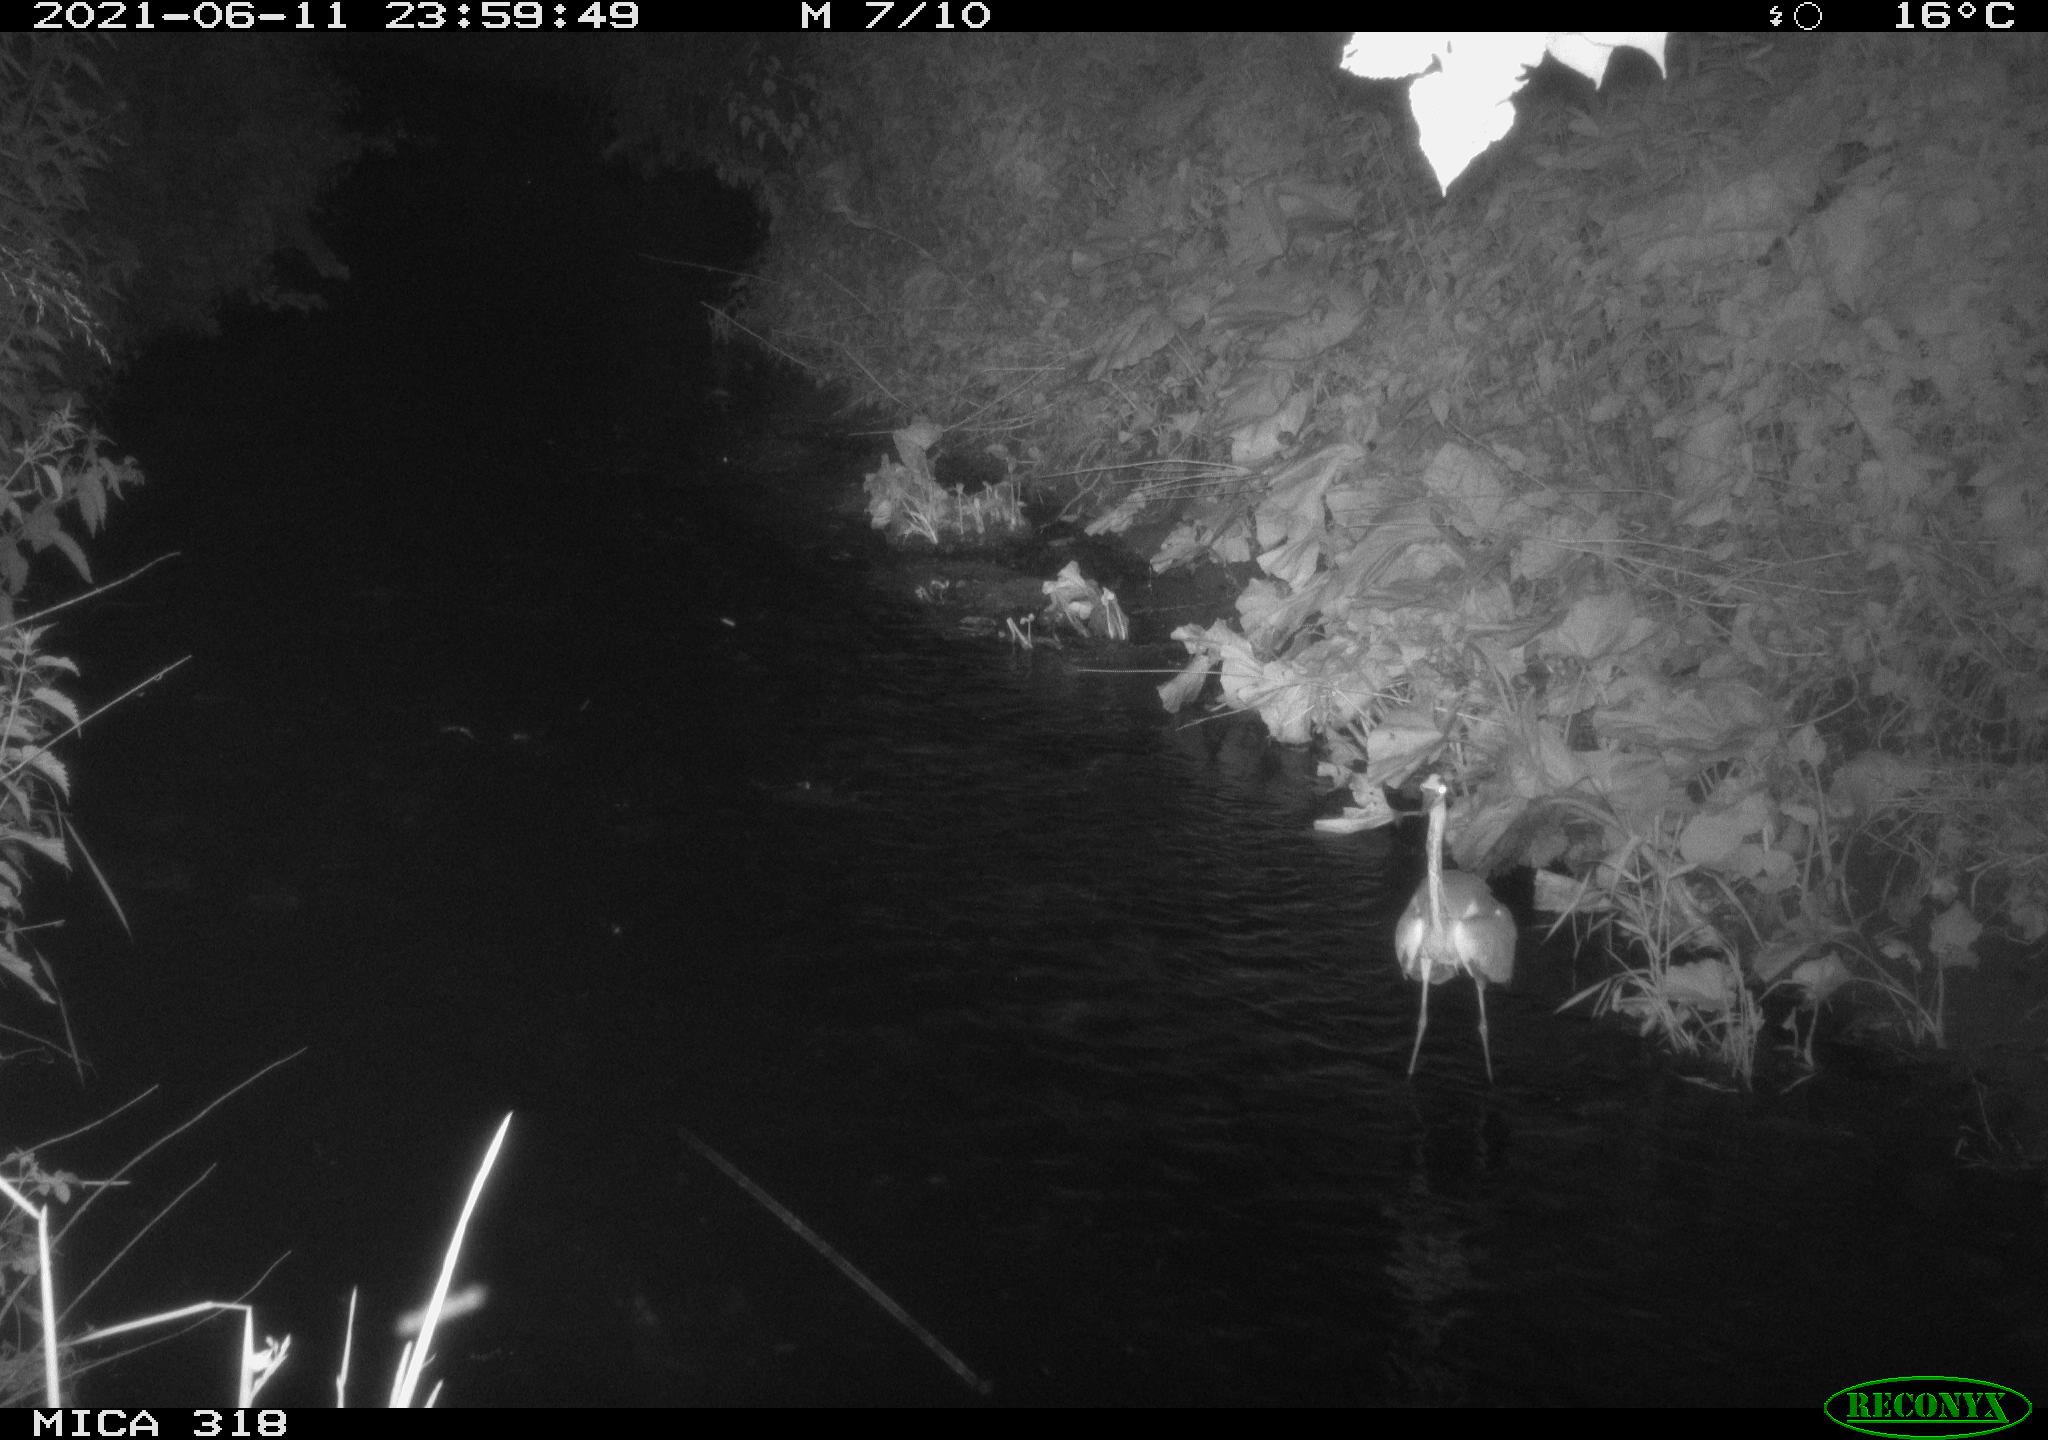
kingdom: Animalia
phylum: Chordata
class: Aves
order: Pelecaniformes
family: Ardeidae
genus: Ardea
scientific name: Ardea cinerea
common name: Grey heron
